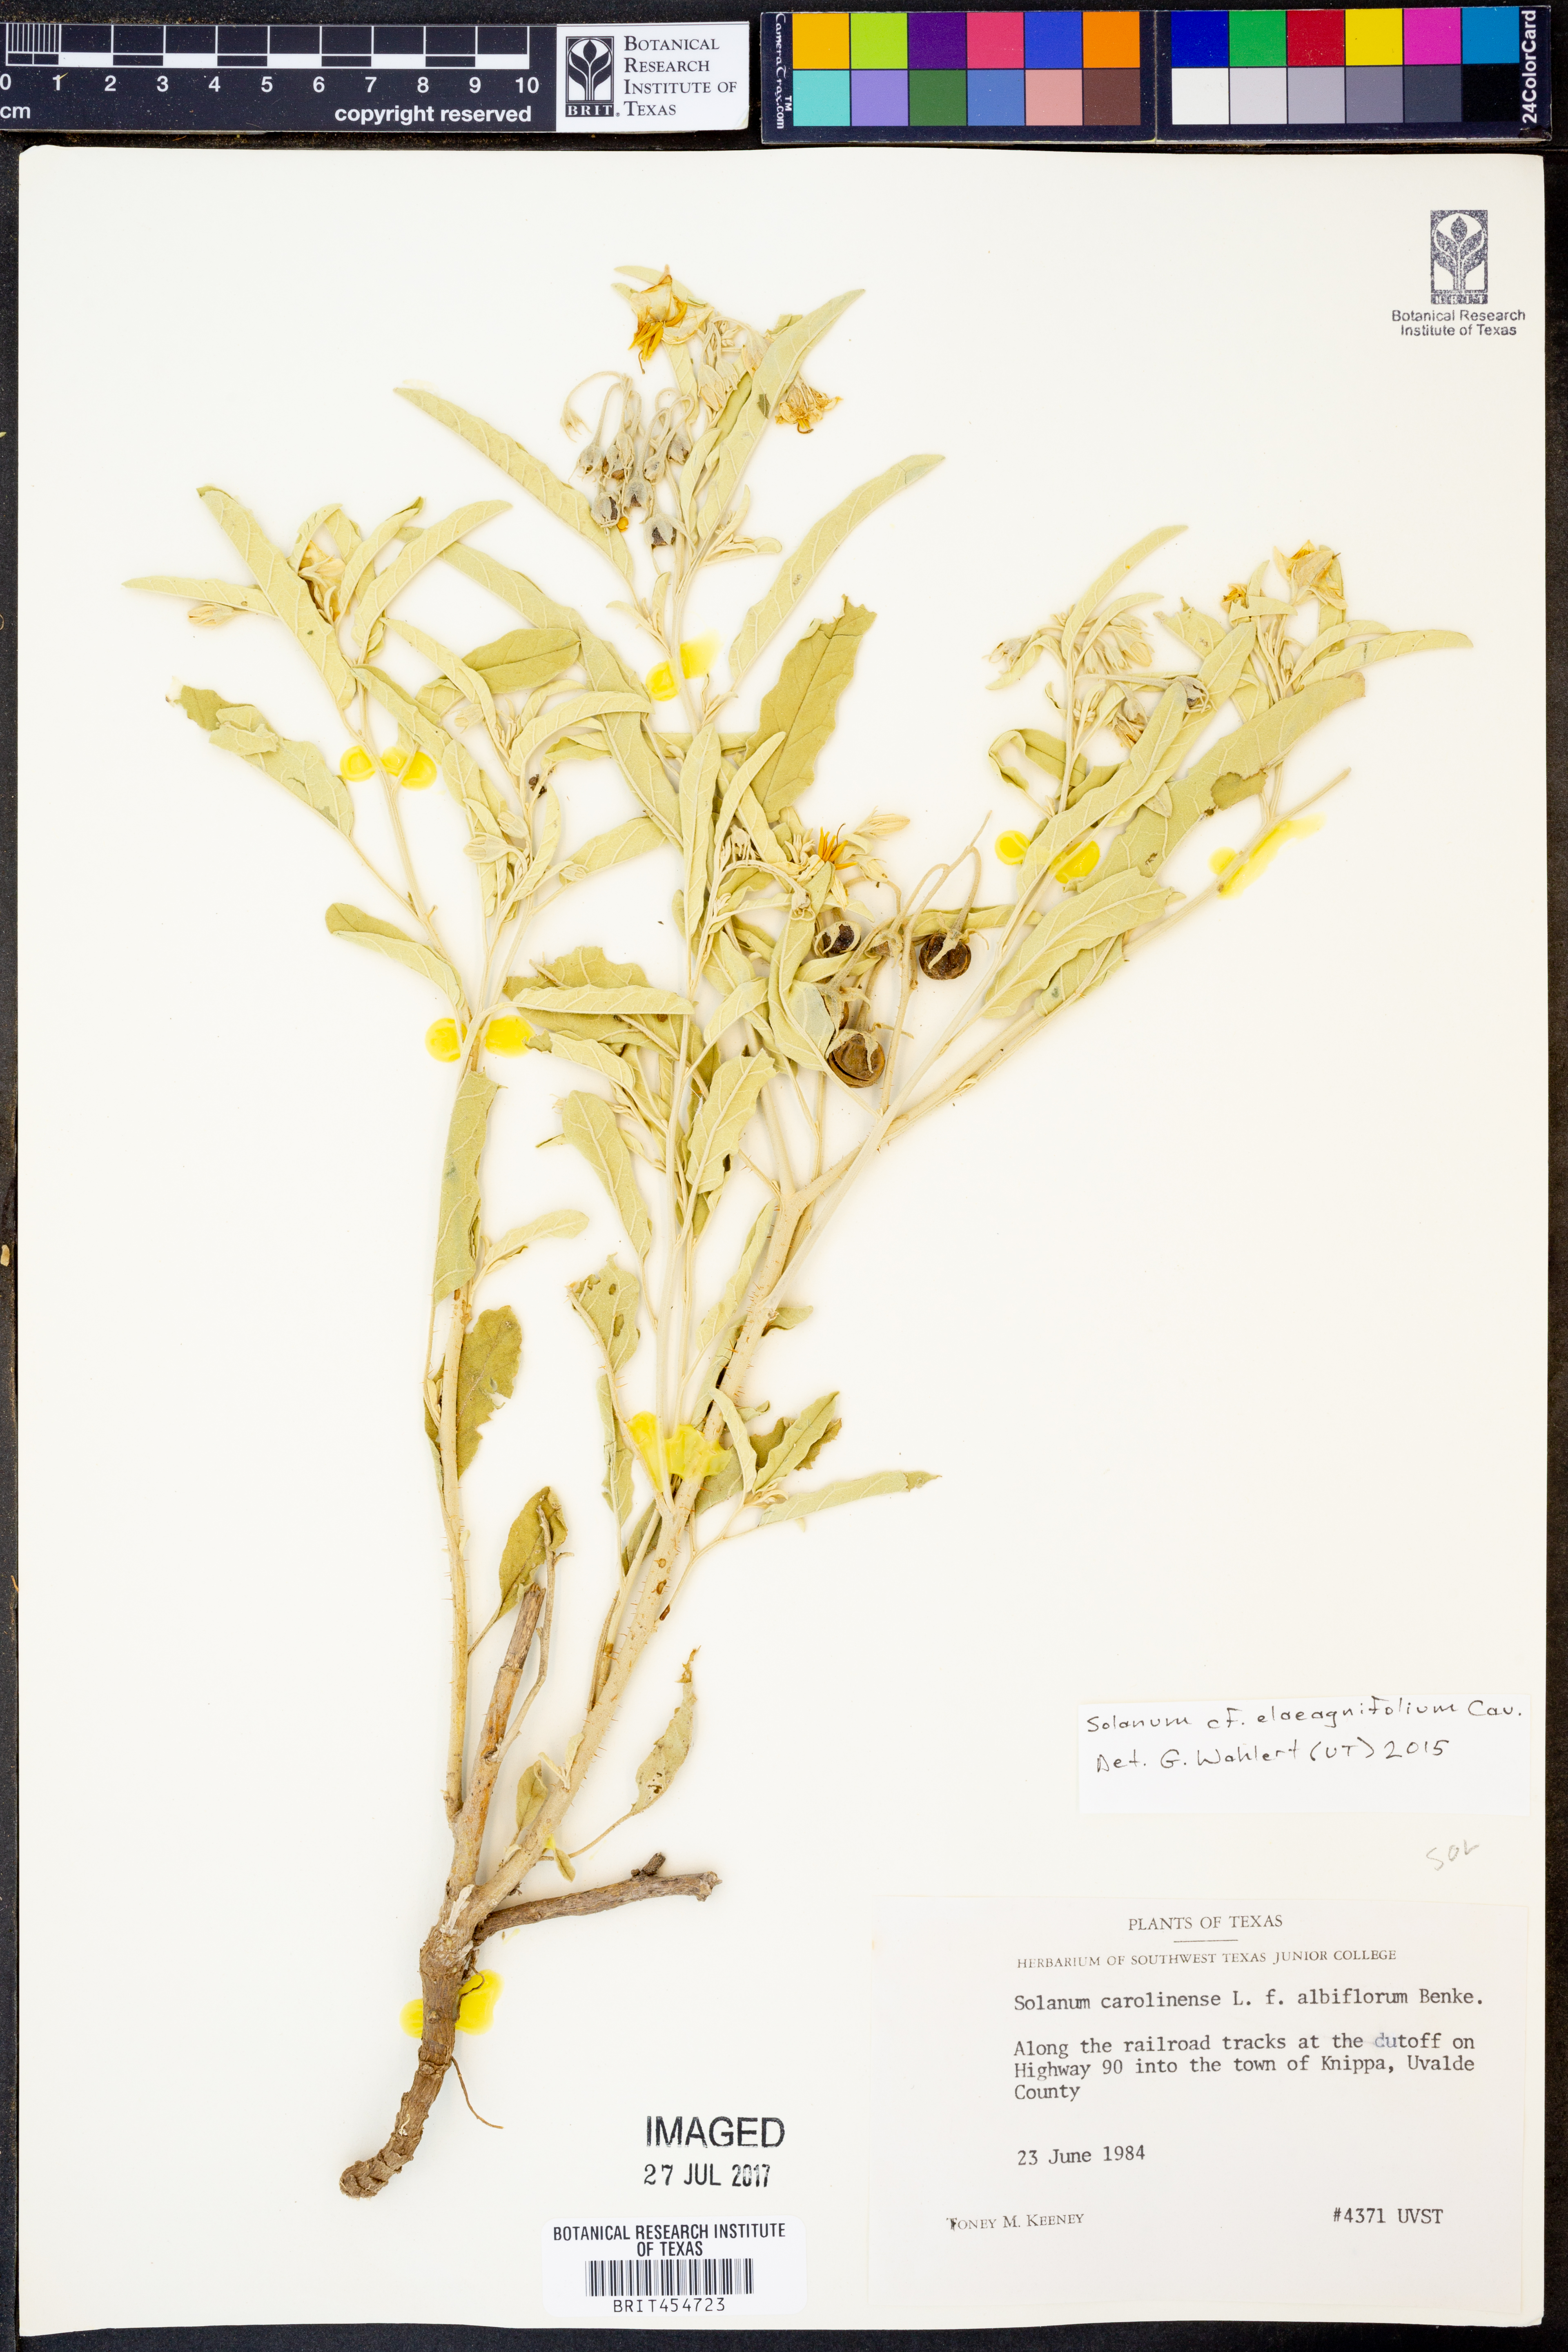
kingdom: Plantae
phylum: Tracheophyta
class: Magnoliopsida
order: Solanales
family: Solanaceae
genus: Solanum
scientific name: Solanum elaeagnifolium
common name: Silverleaf nightshade
